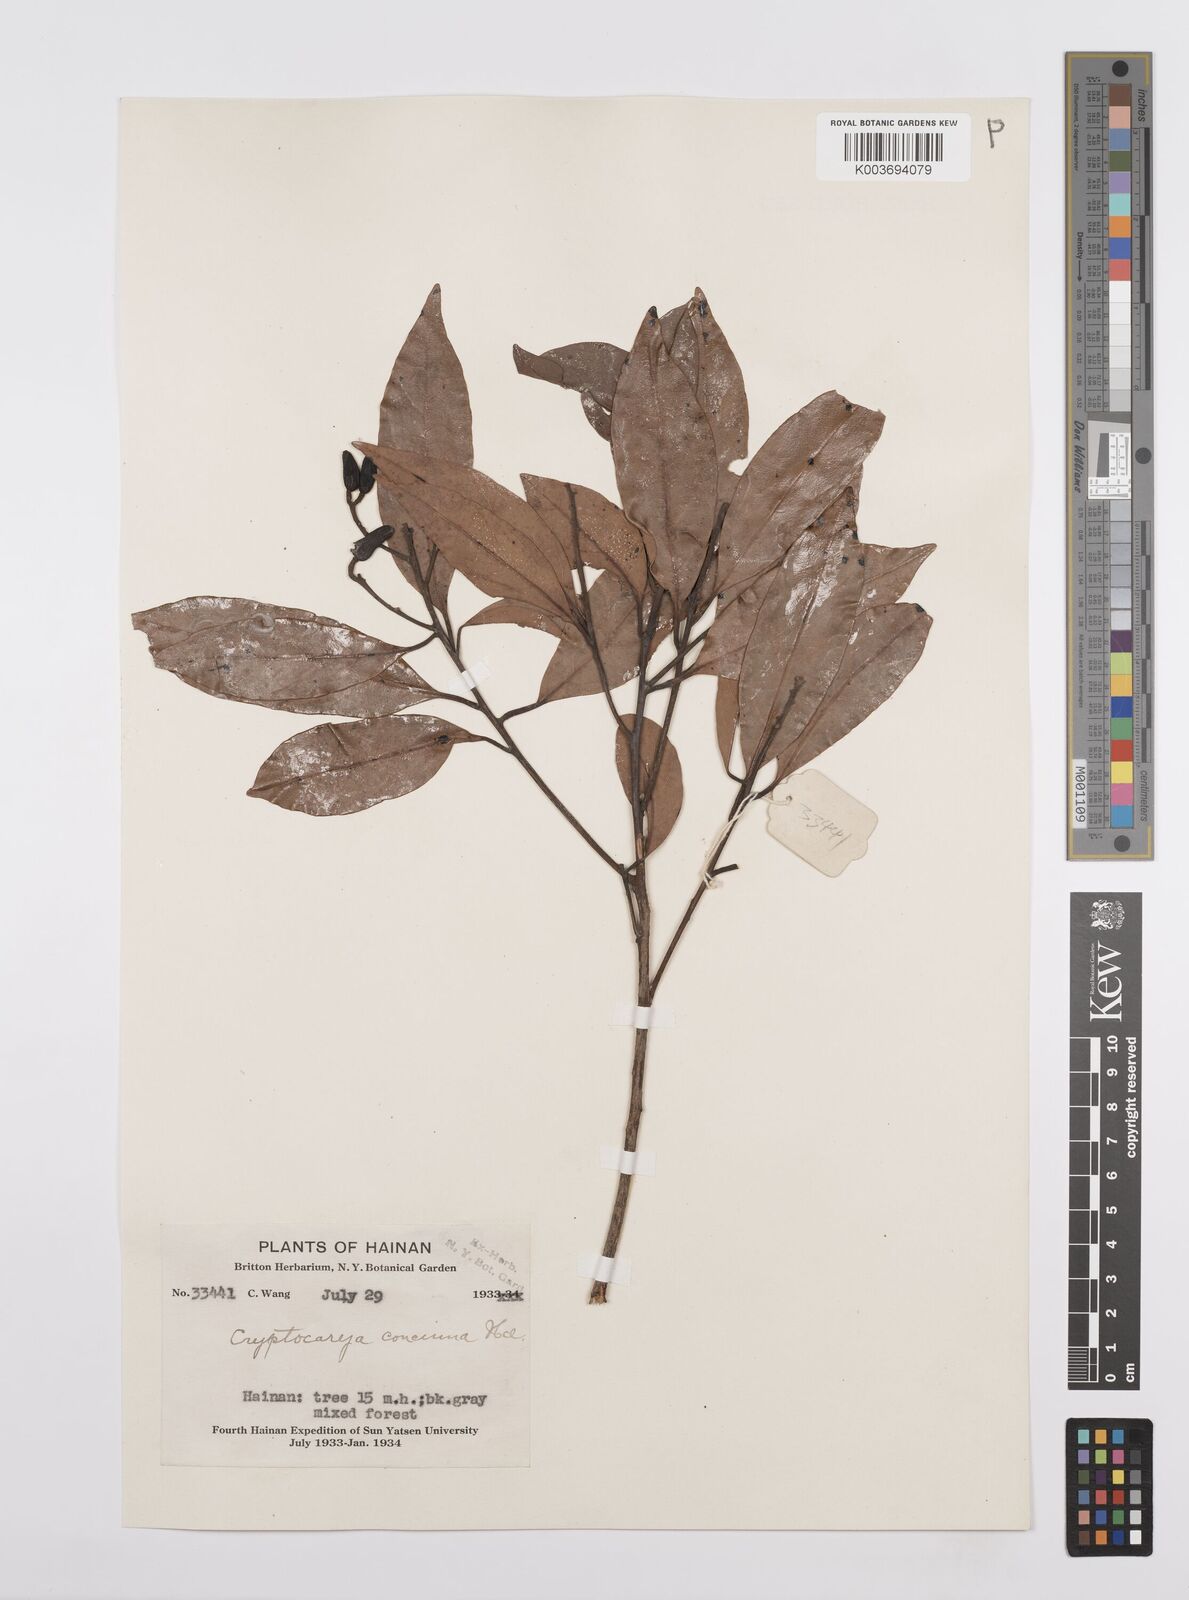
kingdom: Plantae
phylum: Tracheophyta
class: Magnoliopsida
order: Laurales
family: Lauraceae
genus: Cryptocarya
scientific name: Cryptocarya concinna
